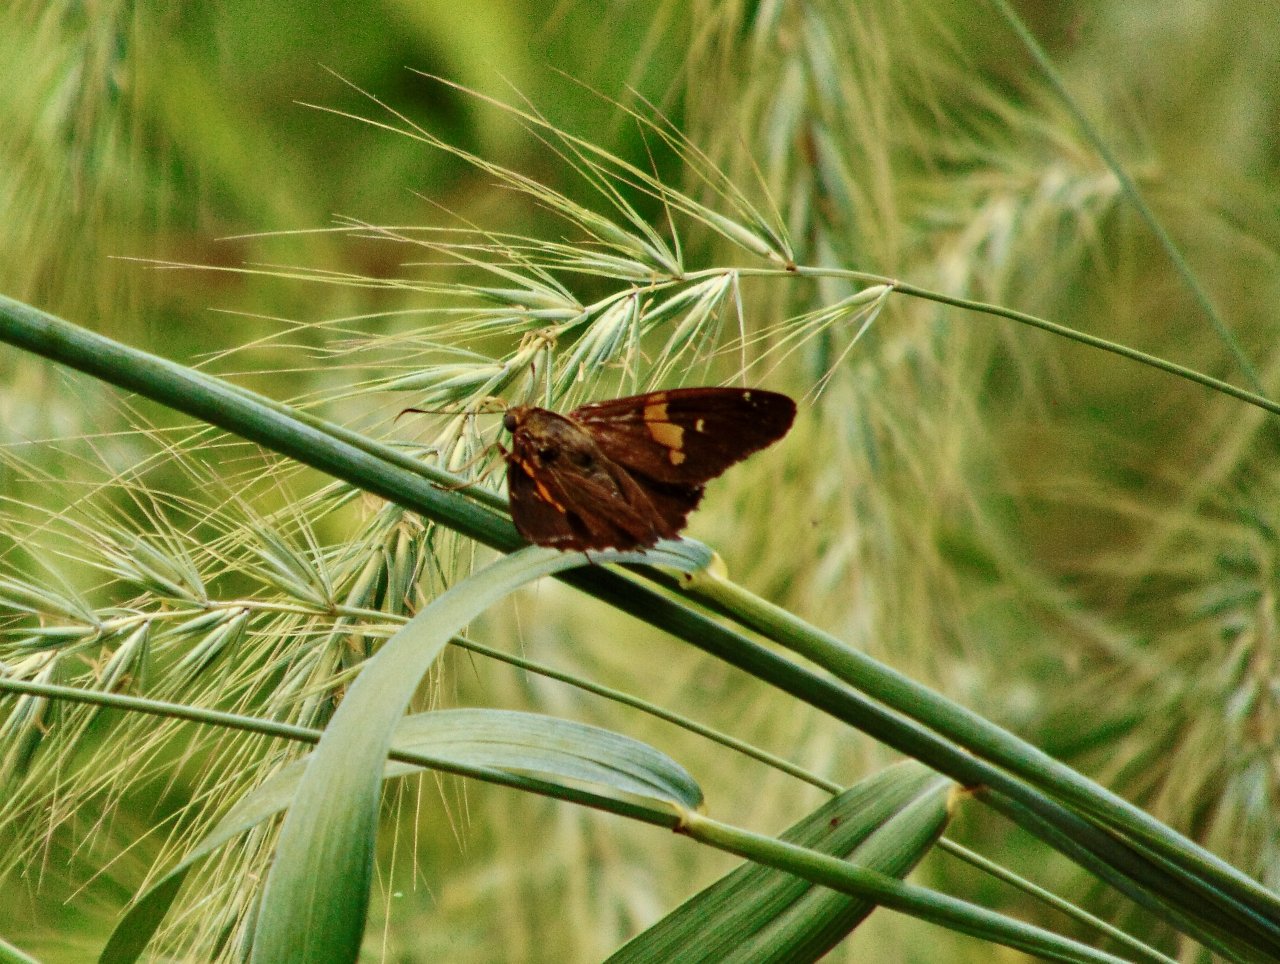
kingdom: Animalia
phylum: Arthropoda
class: Insecta
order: Lepidoptera
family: Hesperiidae
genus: Epargyreus
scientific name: Epargyreus clarus
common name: Silver-spotted Skipper
